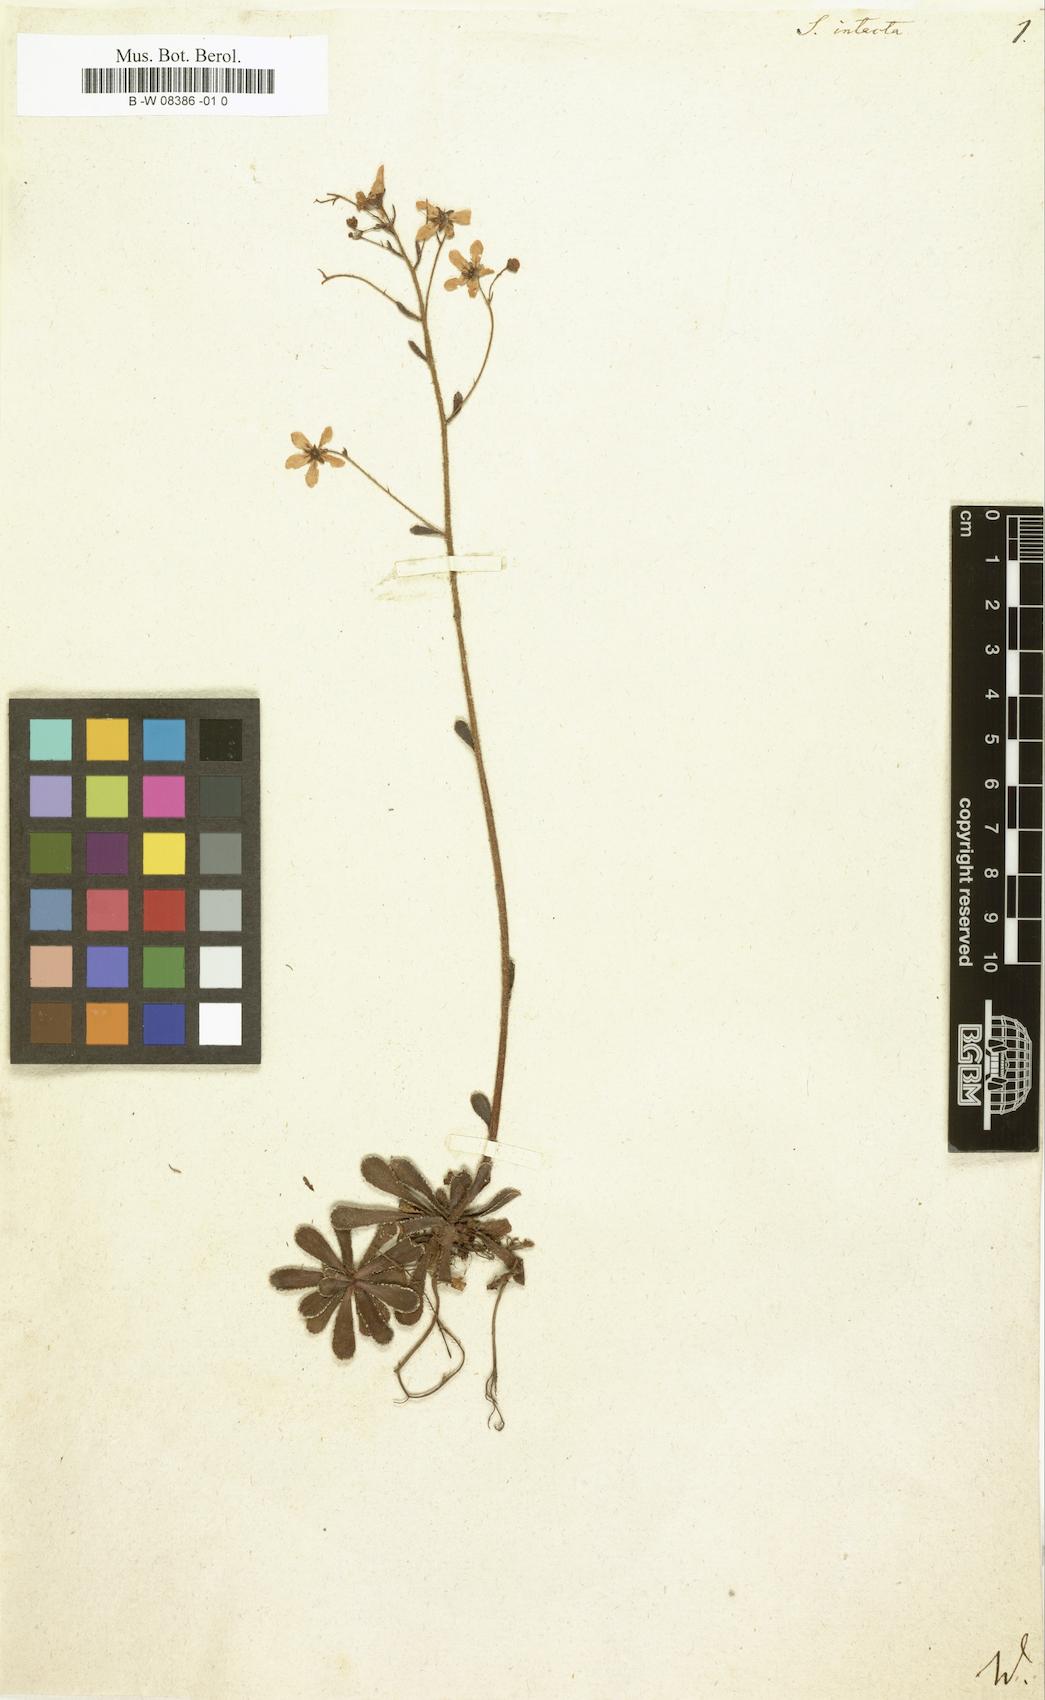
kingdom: Plantae
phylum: Tracheophyta
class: Magnoliopsida
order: Saxifragales
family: Saxifragaceae
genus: Saxifraga
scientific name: Saxifraga paniculata
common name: Livelong saxifrage
